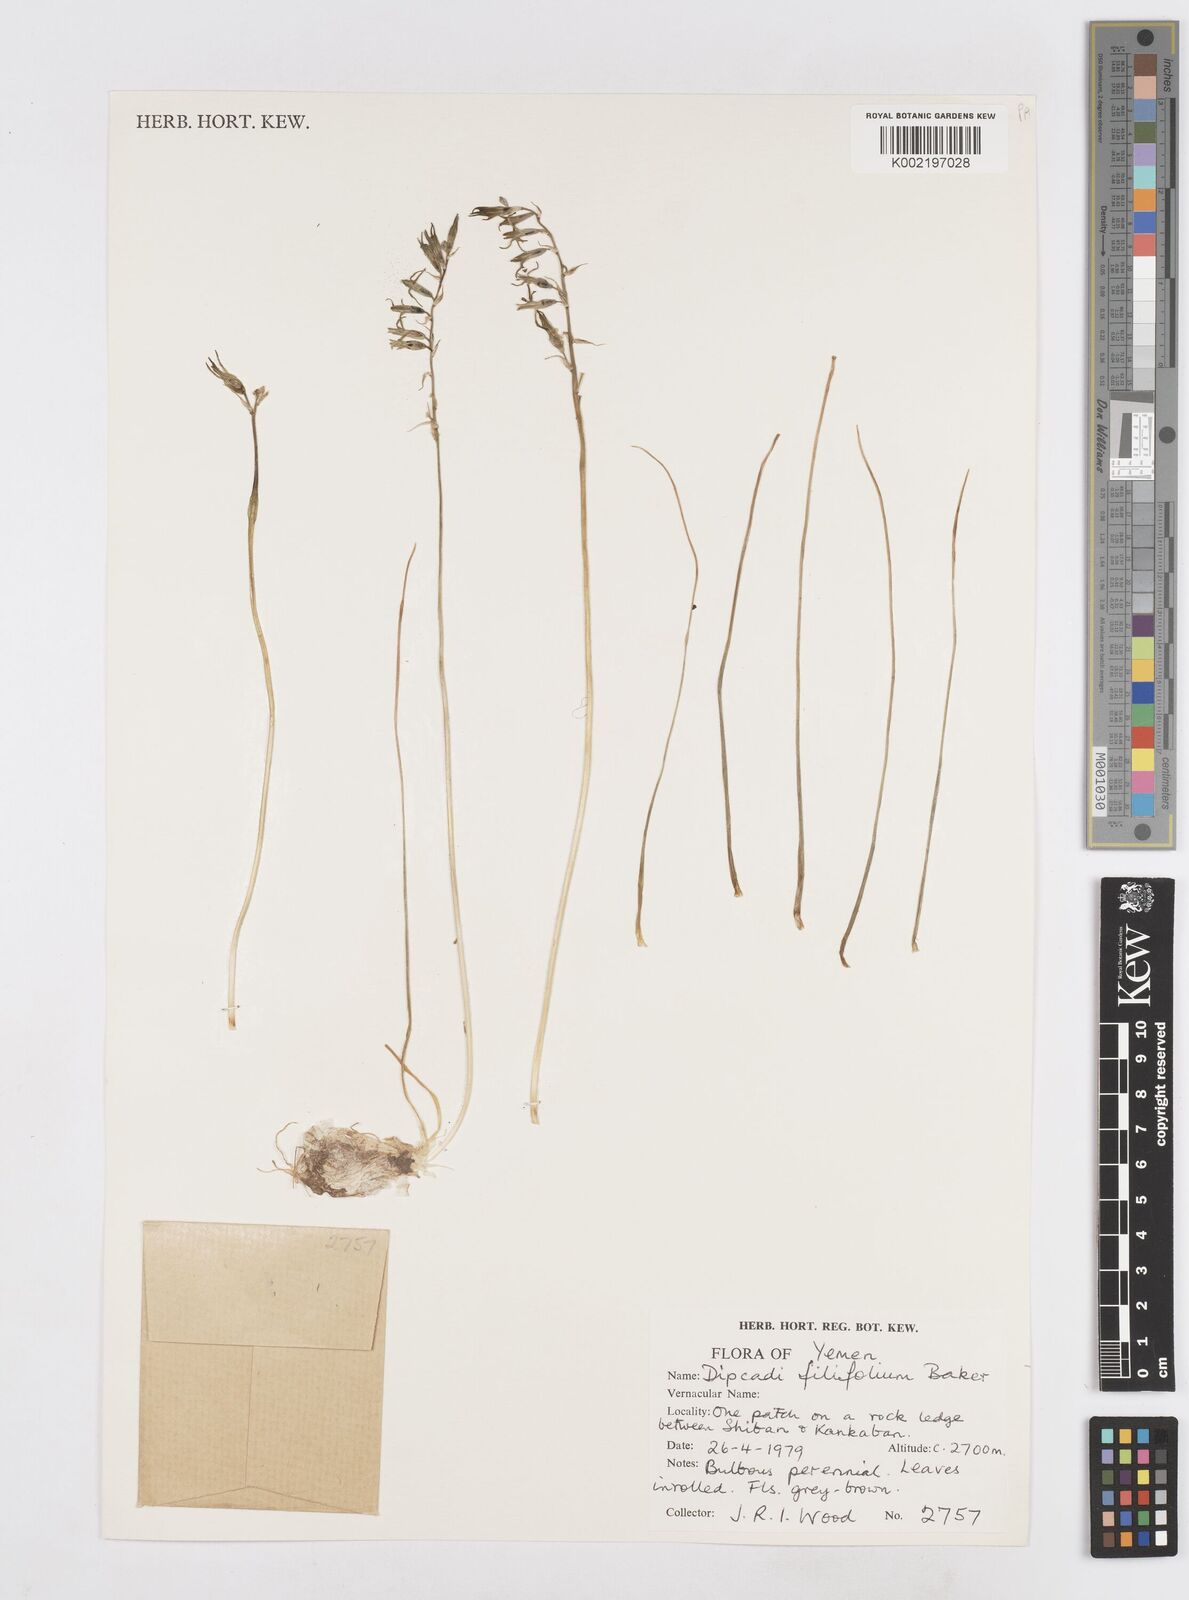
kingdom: Plantae
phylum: Tracheophyta
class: Liliopsida
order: Asparagales
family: Asparagaceae
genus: Dipcadi
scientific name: Dipcadi viride
